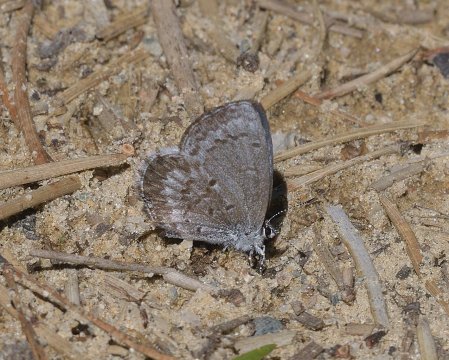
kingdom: Animalia
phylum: Arthropoda
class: Insecta
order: Lepidoptera
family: Lycaenidae
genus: Celastrina
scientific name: Celastrina lucia
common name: Northern Spring Azure
